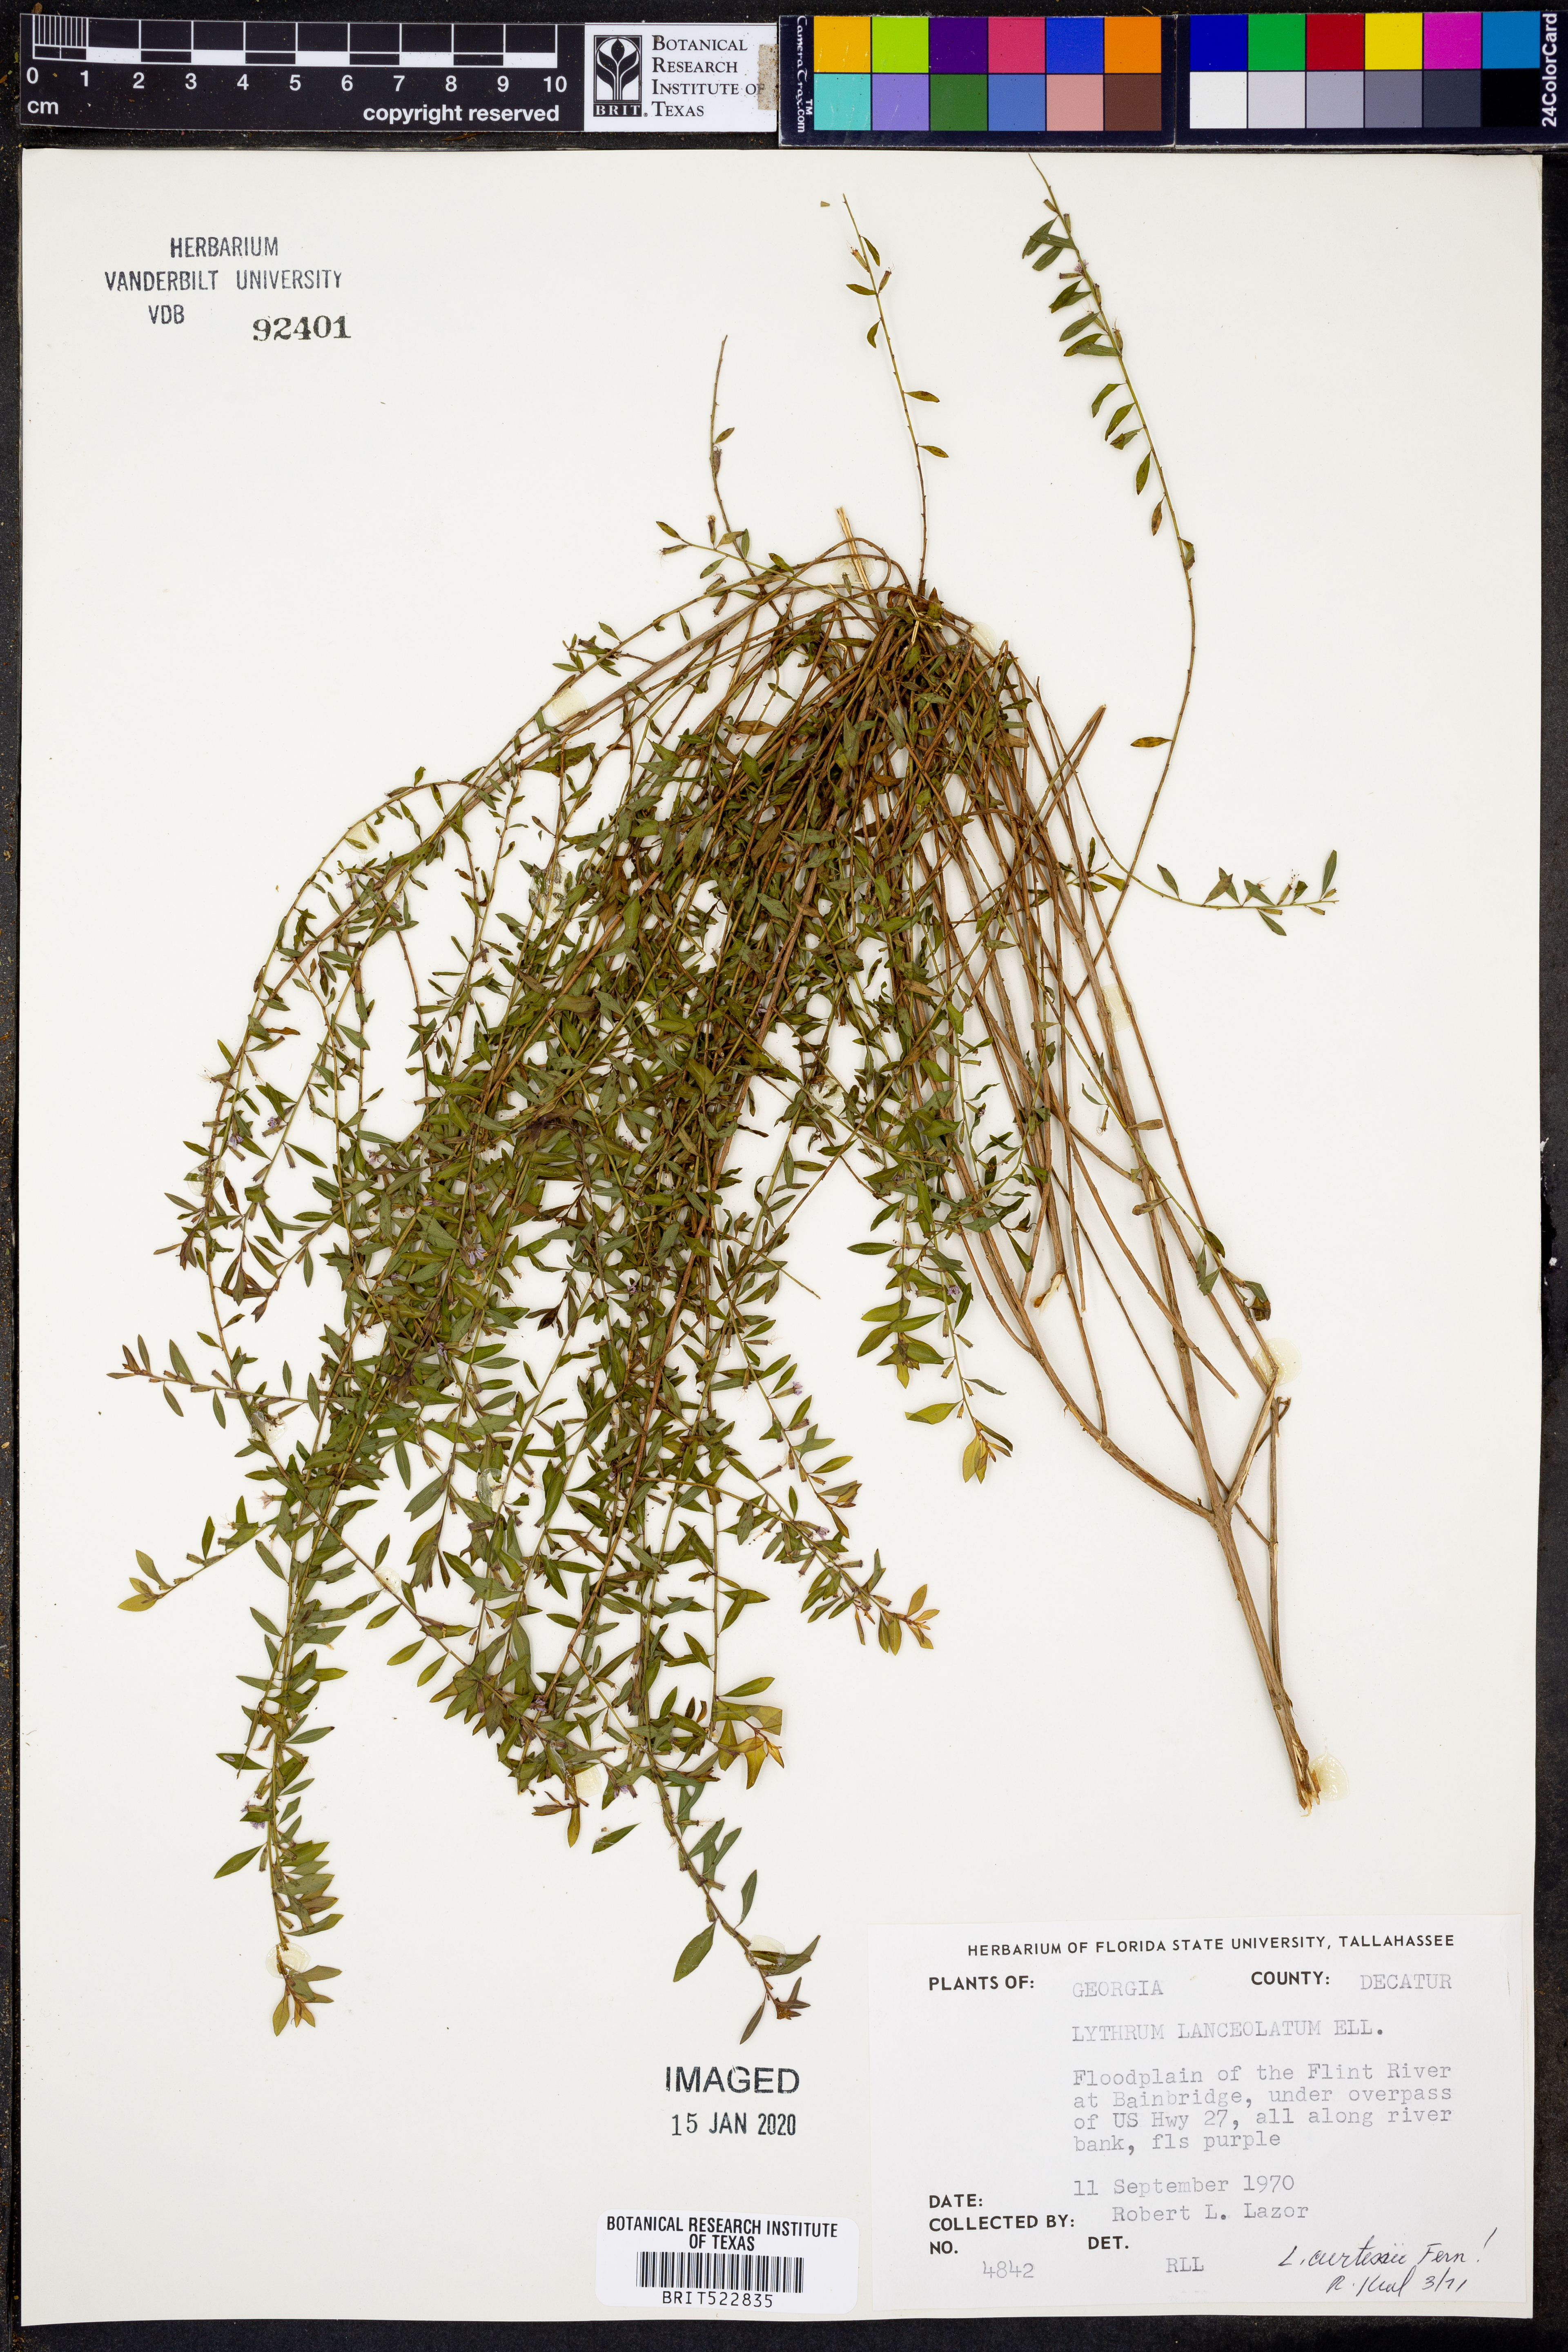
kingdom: Plantae
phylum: Tracheophyta
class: Magnoliopsida
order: Myrtales
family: Lythraceae
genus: Lythrum
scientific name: Lythrum alatum
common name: Winged loosestrife
